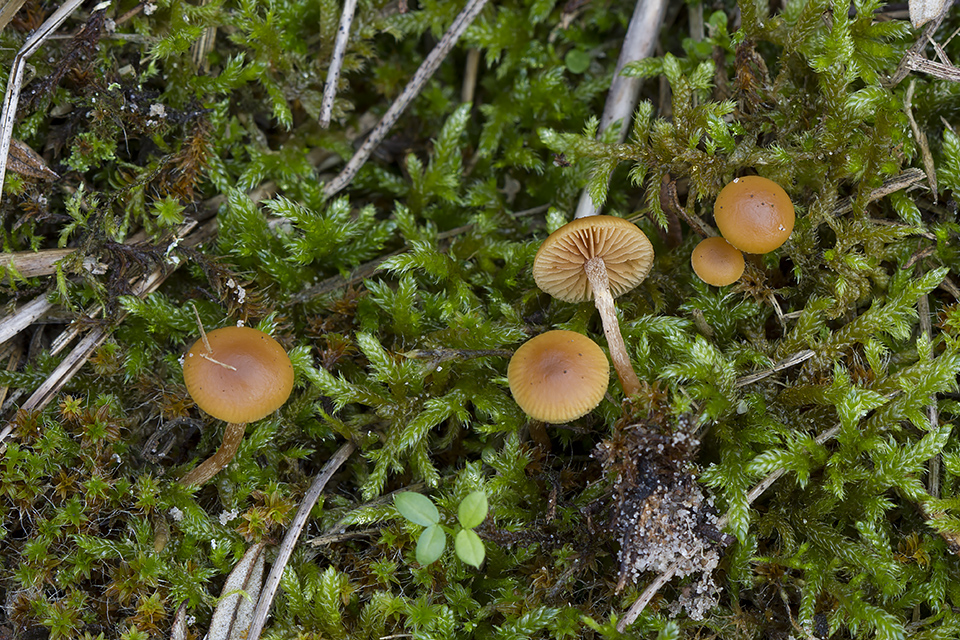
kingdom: Fungi
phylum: Basidiomycota
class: Agaricomycetes
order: Agaricales
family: Hymenogastraceae
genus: Galerina
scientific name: Galerina esteve-raventosii
